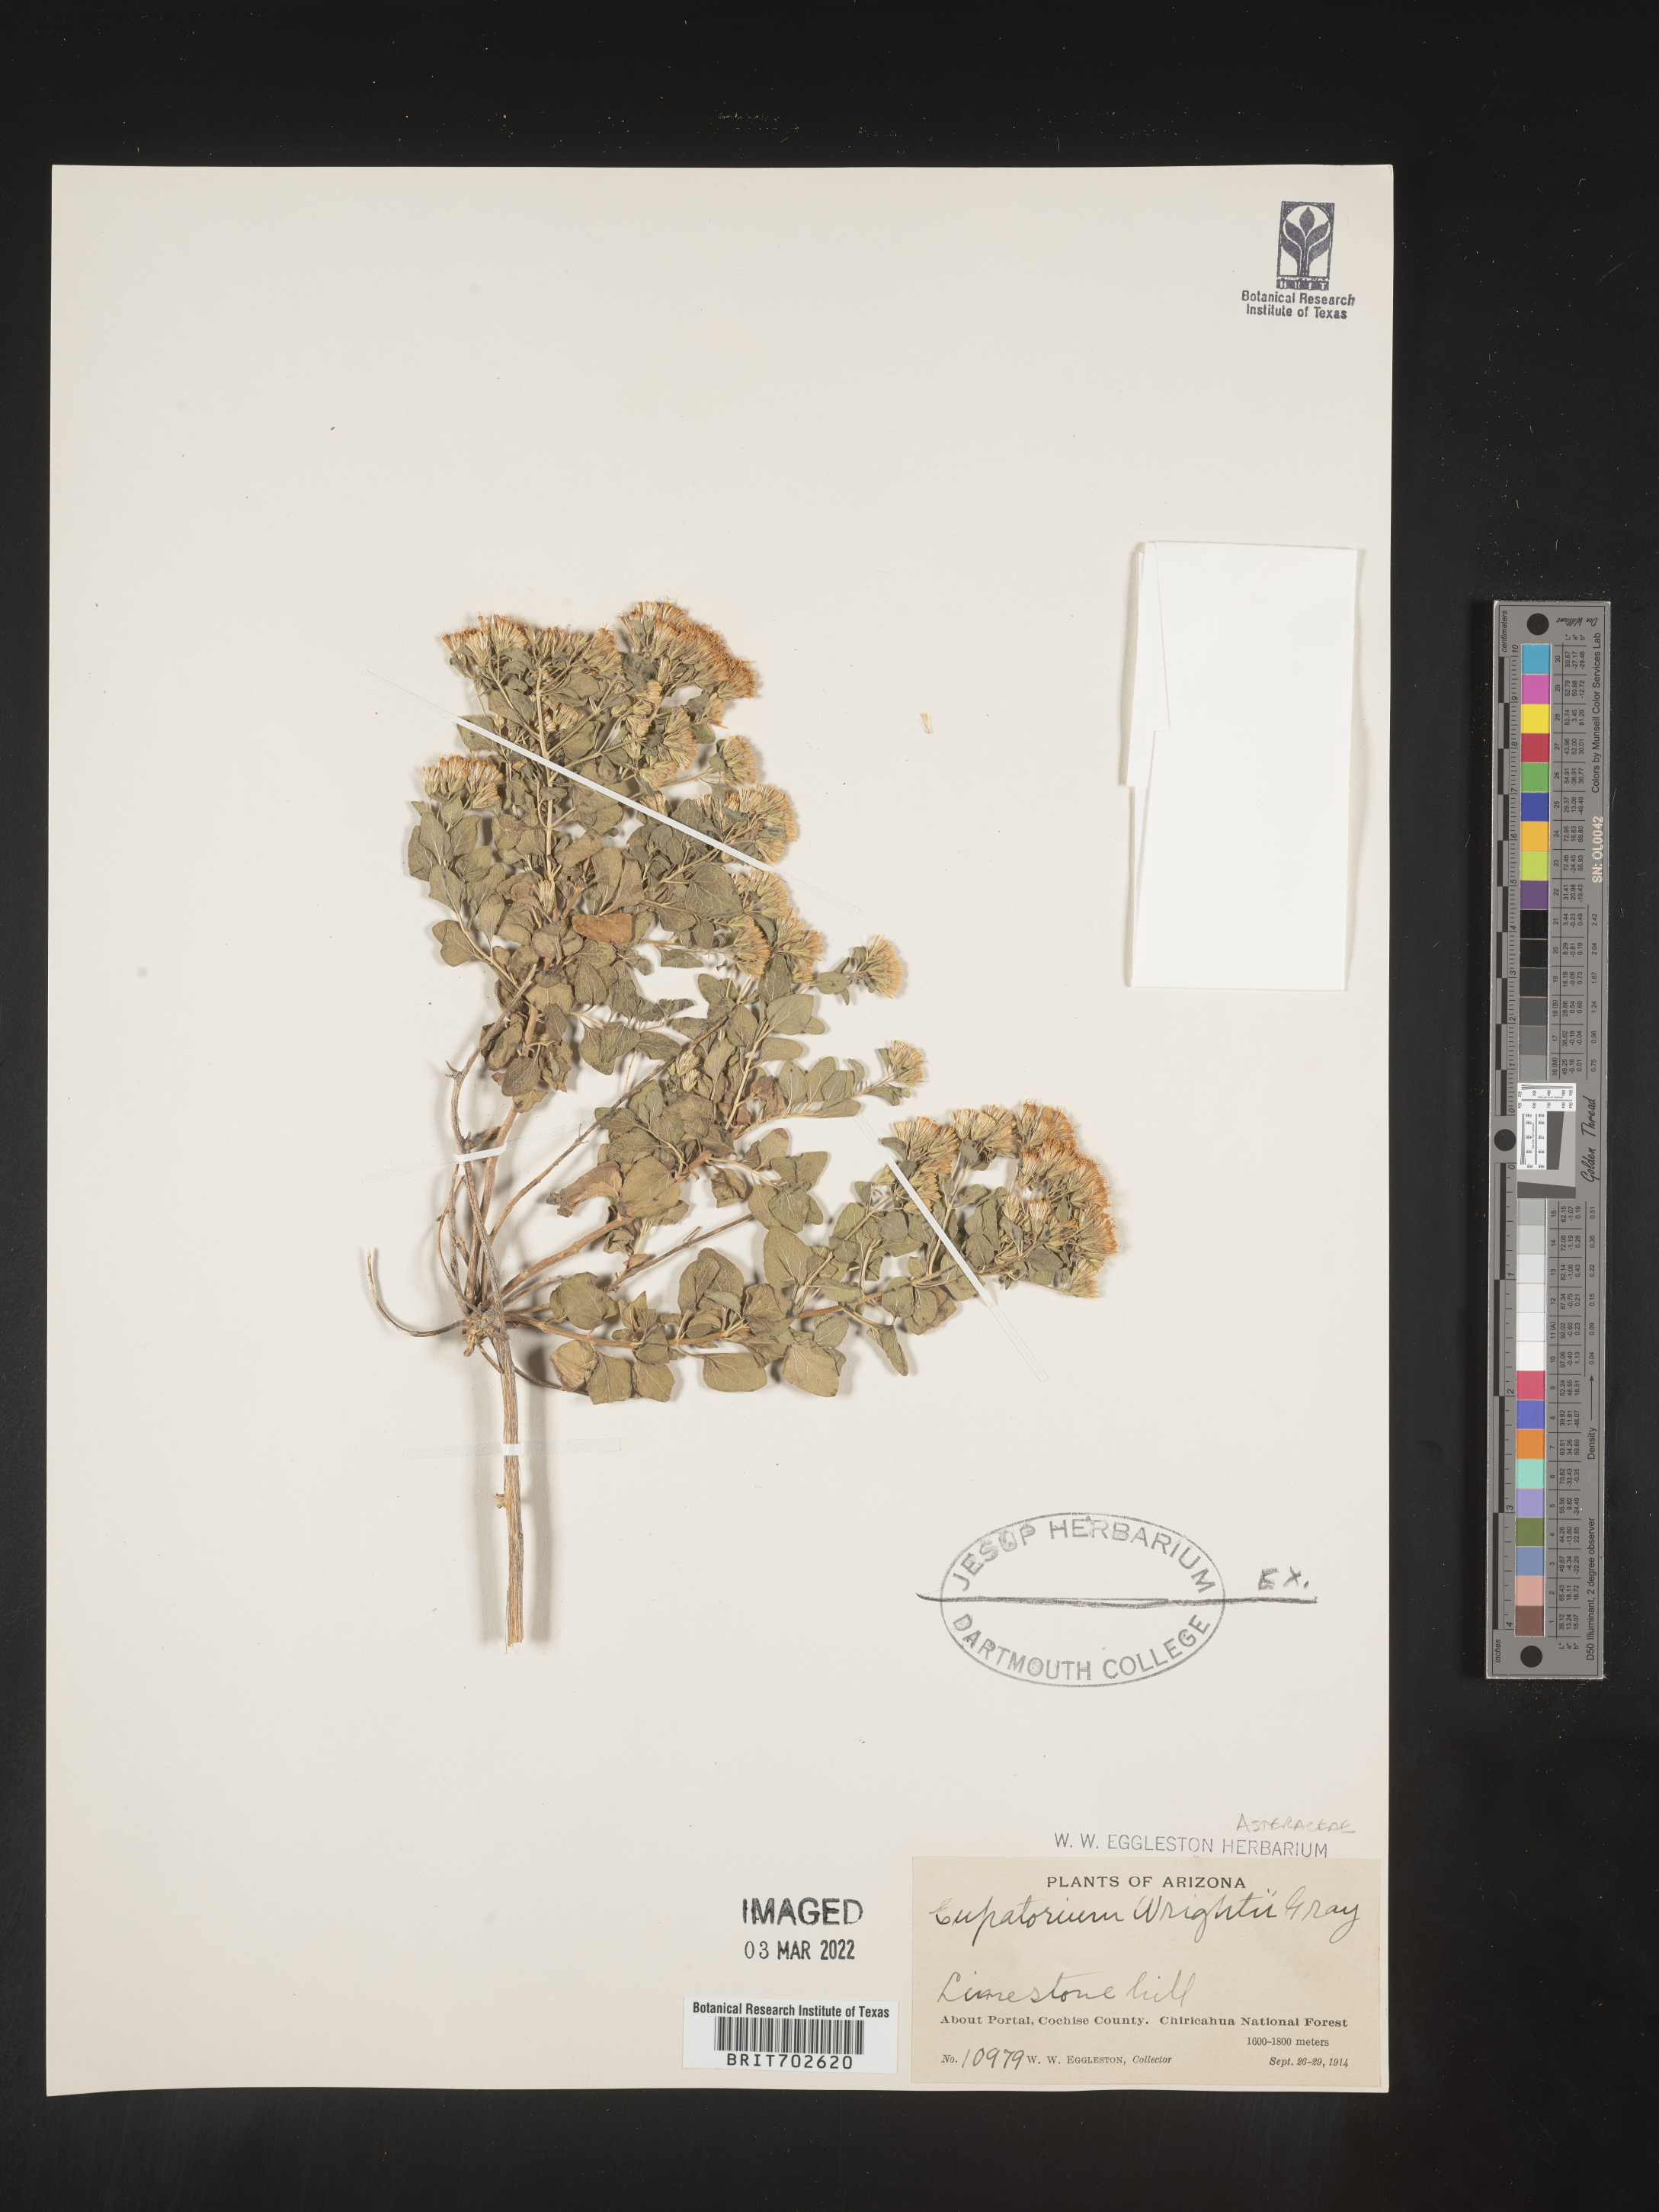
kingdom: Plantae
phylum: Tracheophyta
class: Magnoliopsida
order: Asterales
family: Asteraceae
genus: Ageratina
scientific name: Ageratina wrightii
